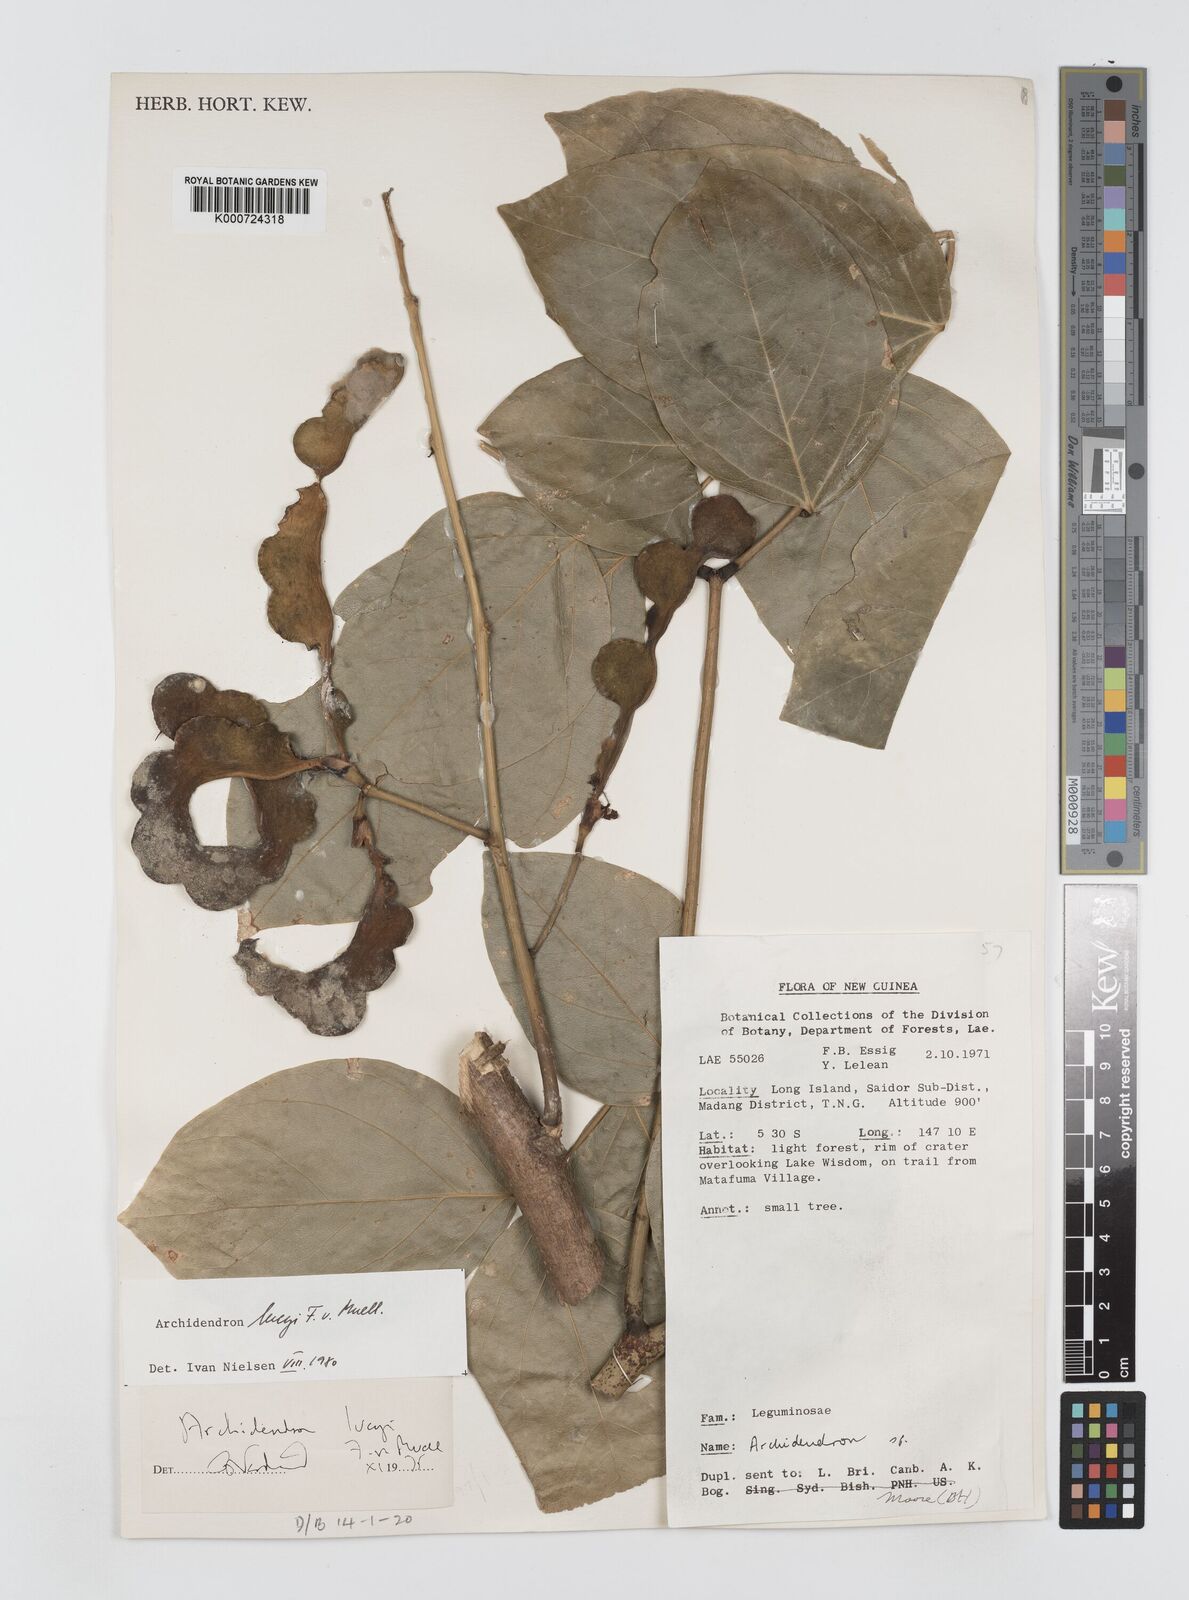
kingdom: Plantae
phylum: Tracheophyta
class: Magnoliopsida
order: Fabales
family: Fabaceae
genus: Archidendron
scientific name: Archidendron lucyi
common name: Scarlet bean
